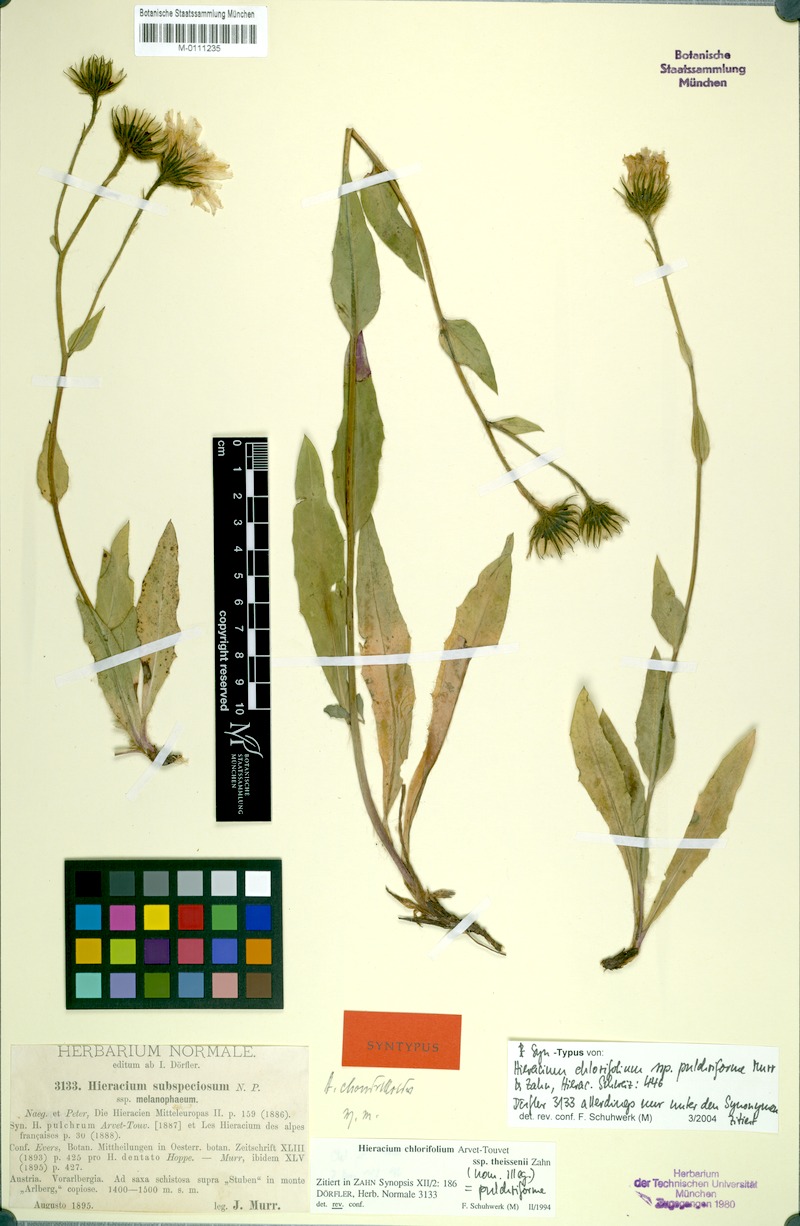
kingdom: Plantae
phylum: Tracheophyta
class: Magnoliopsida
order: Asterales
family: Asteraceae
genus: Hieracium
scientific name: Hieracium chlorifolium
